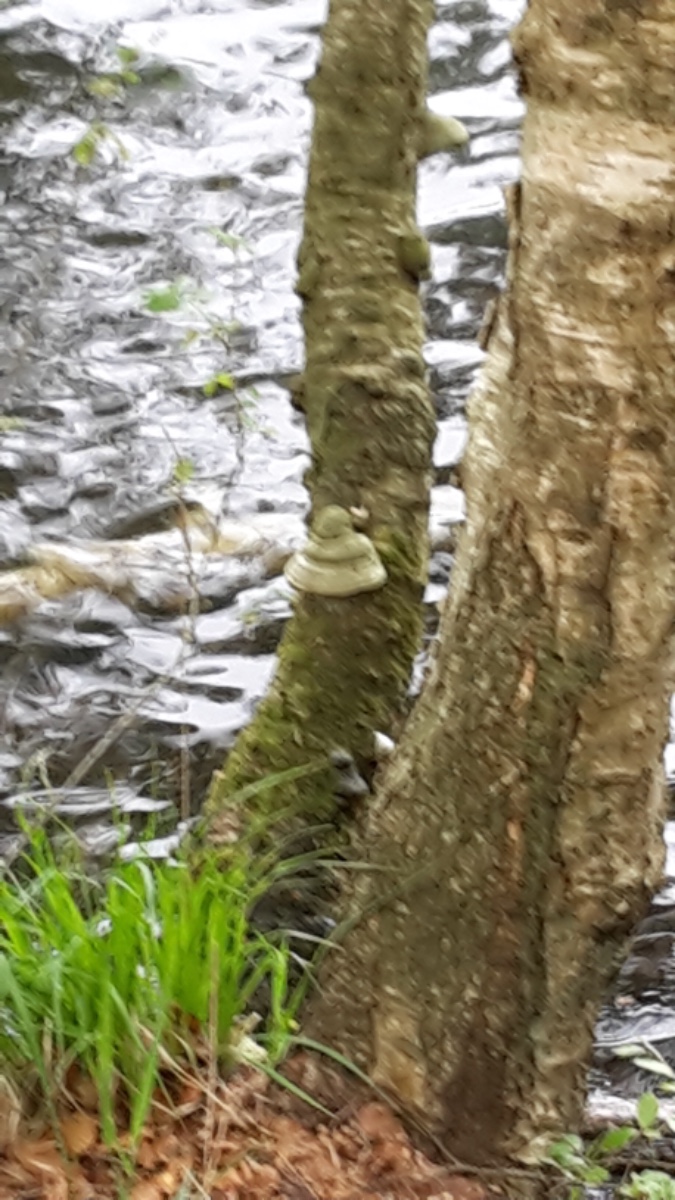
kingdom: Fungi
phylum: Basidiomycota
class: Agaricomycetes
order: Polyporales
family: Polyporaceae
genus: Fomes
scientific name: Fomes fomentarius
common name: tøndersvamp
